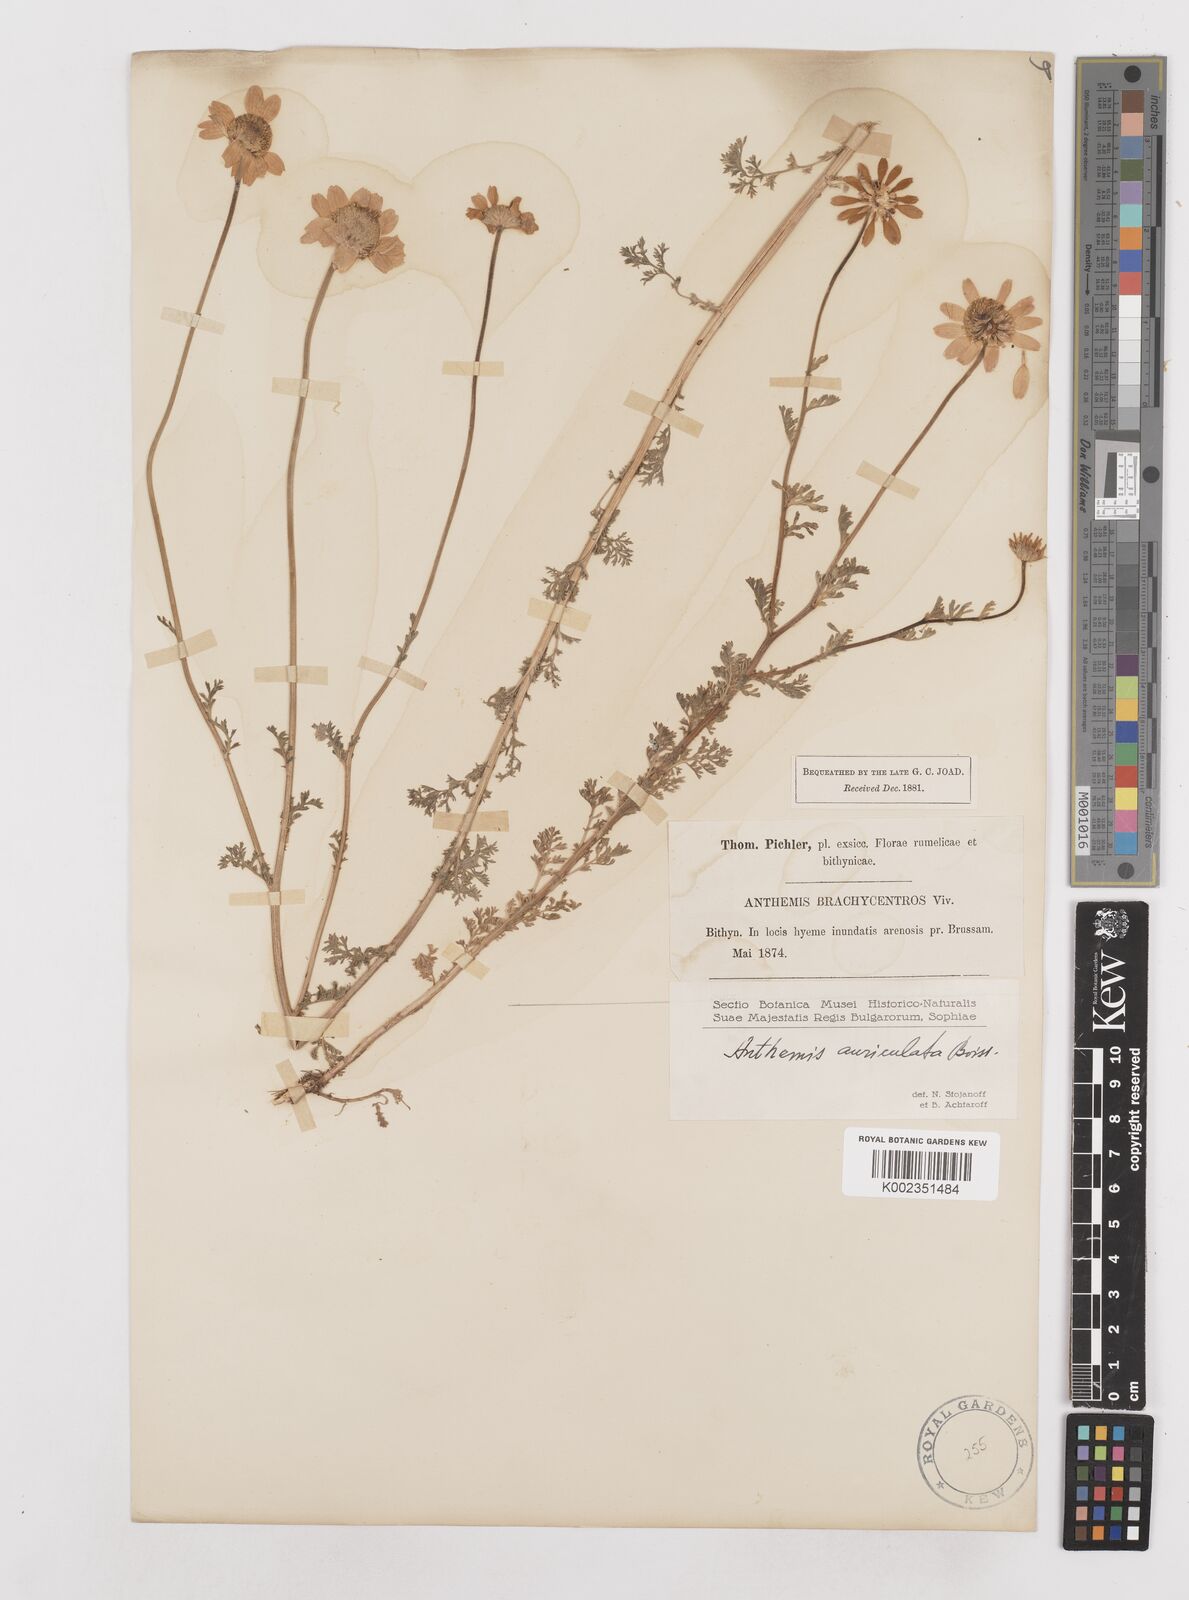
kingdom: Plantae
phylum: Tracheophyta
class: Magnoliopsida
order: Asterales
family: Asteraceae
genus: Anthemis
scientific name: Anthemis auriculata
